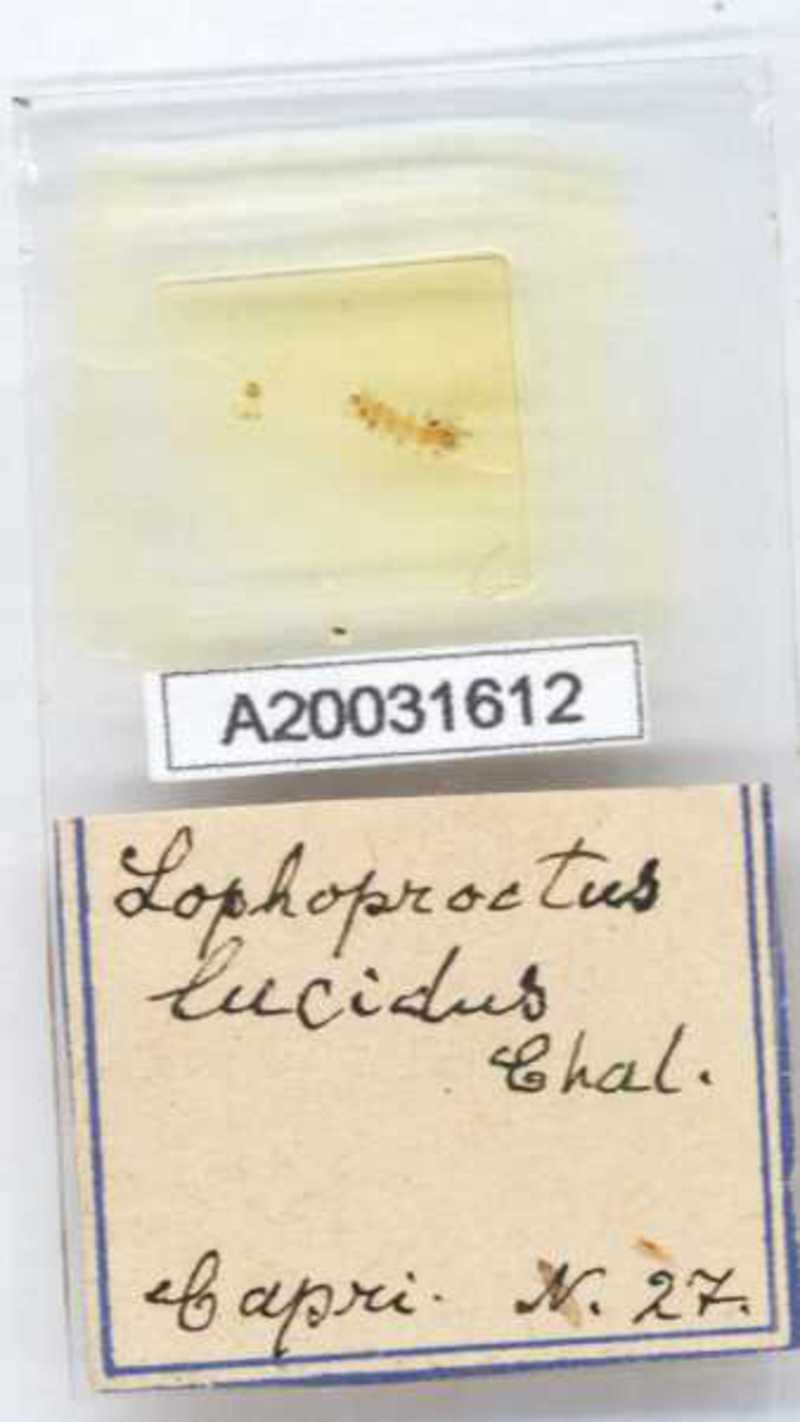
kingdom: Animalia
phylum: Arthropoda
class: Diplopoda
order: Polyxenida
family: Lophoproctidae
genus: Lophoproctus
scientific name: Lophoproctus lucidus
